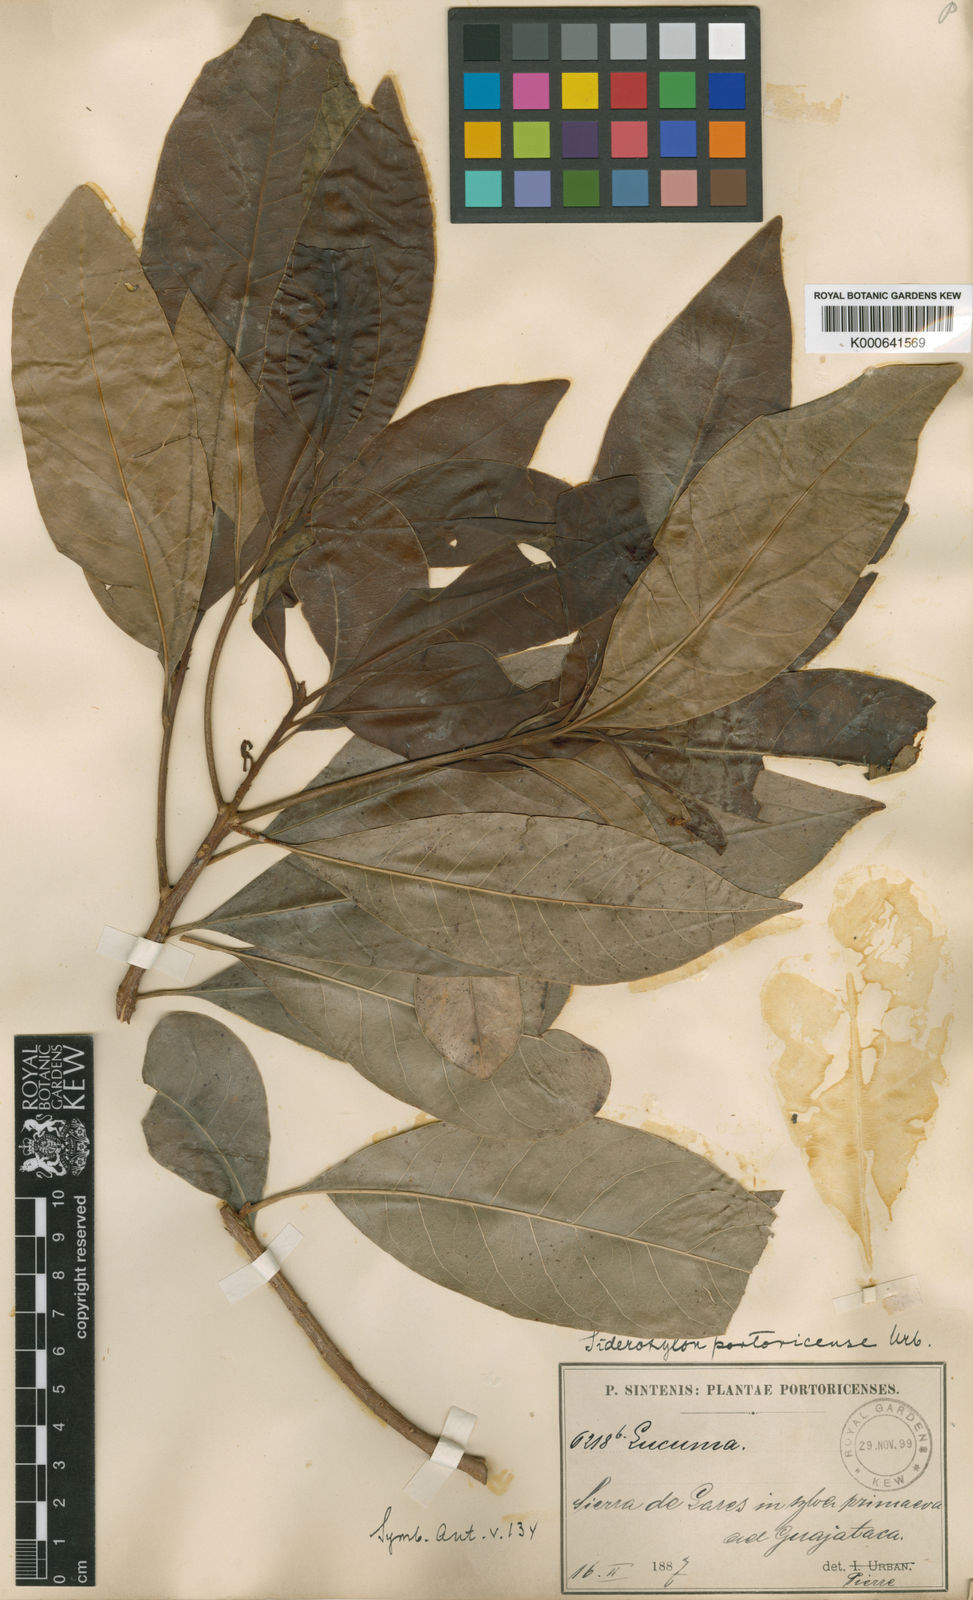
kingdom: Plantae
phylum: Tracheophyta
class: Magnoliopsida
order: Ericales
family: Sapotaceae
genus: Sideroxylon
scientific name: Sideroxylon portoricense
